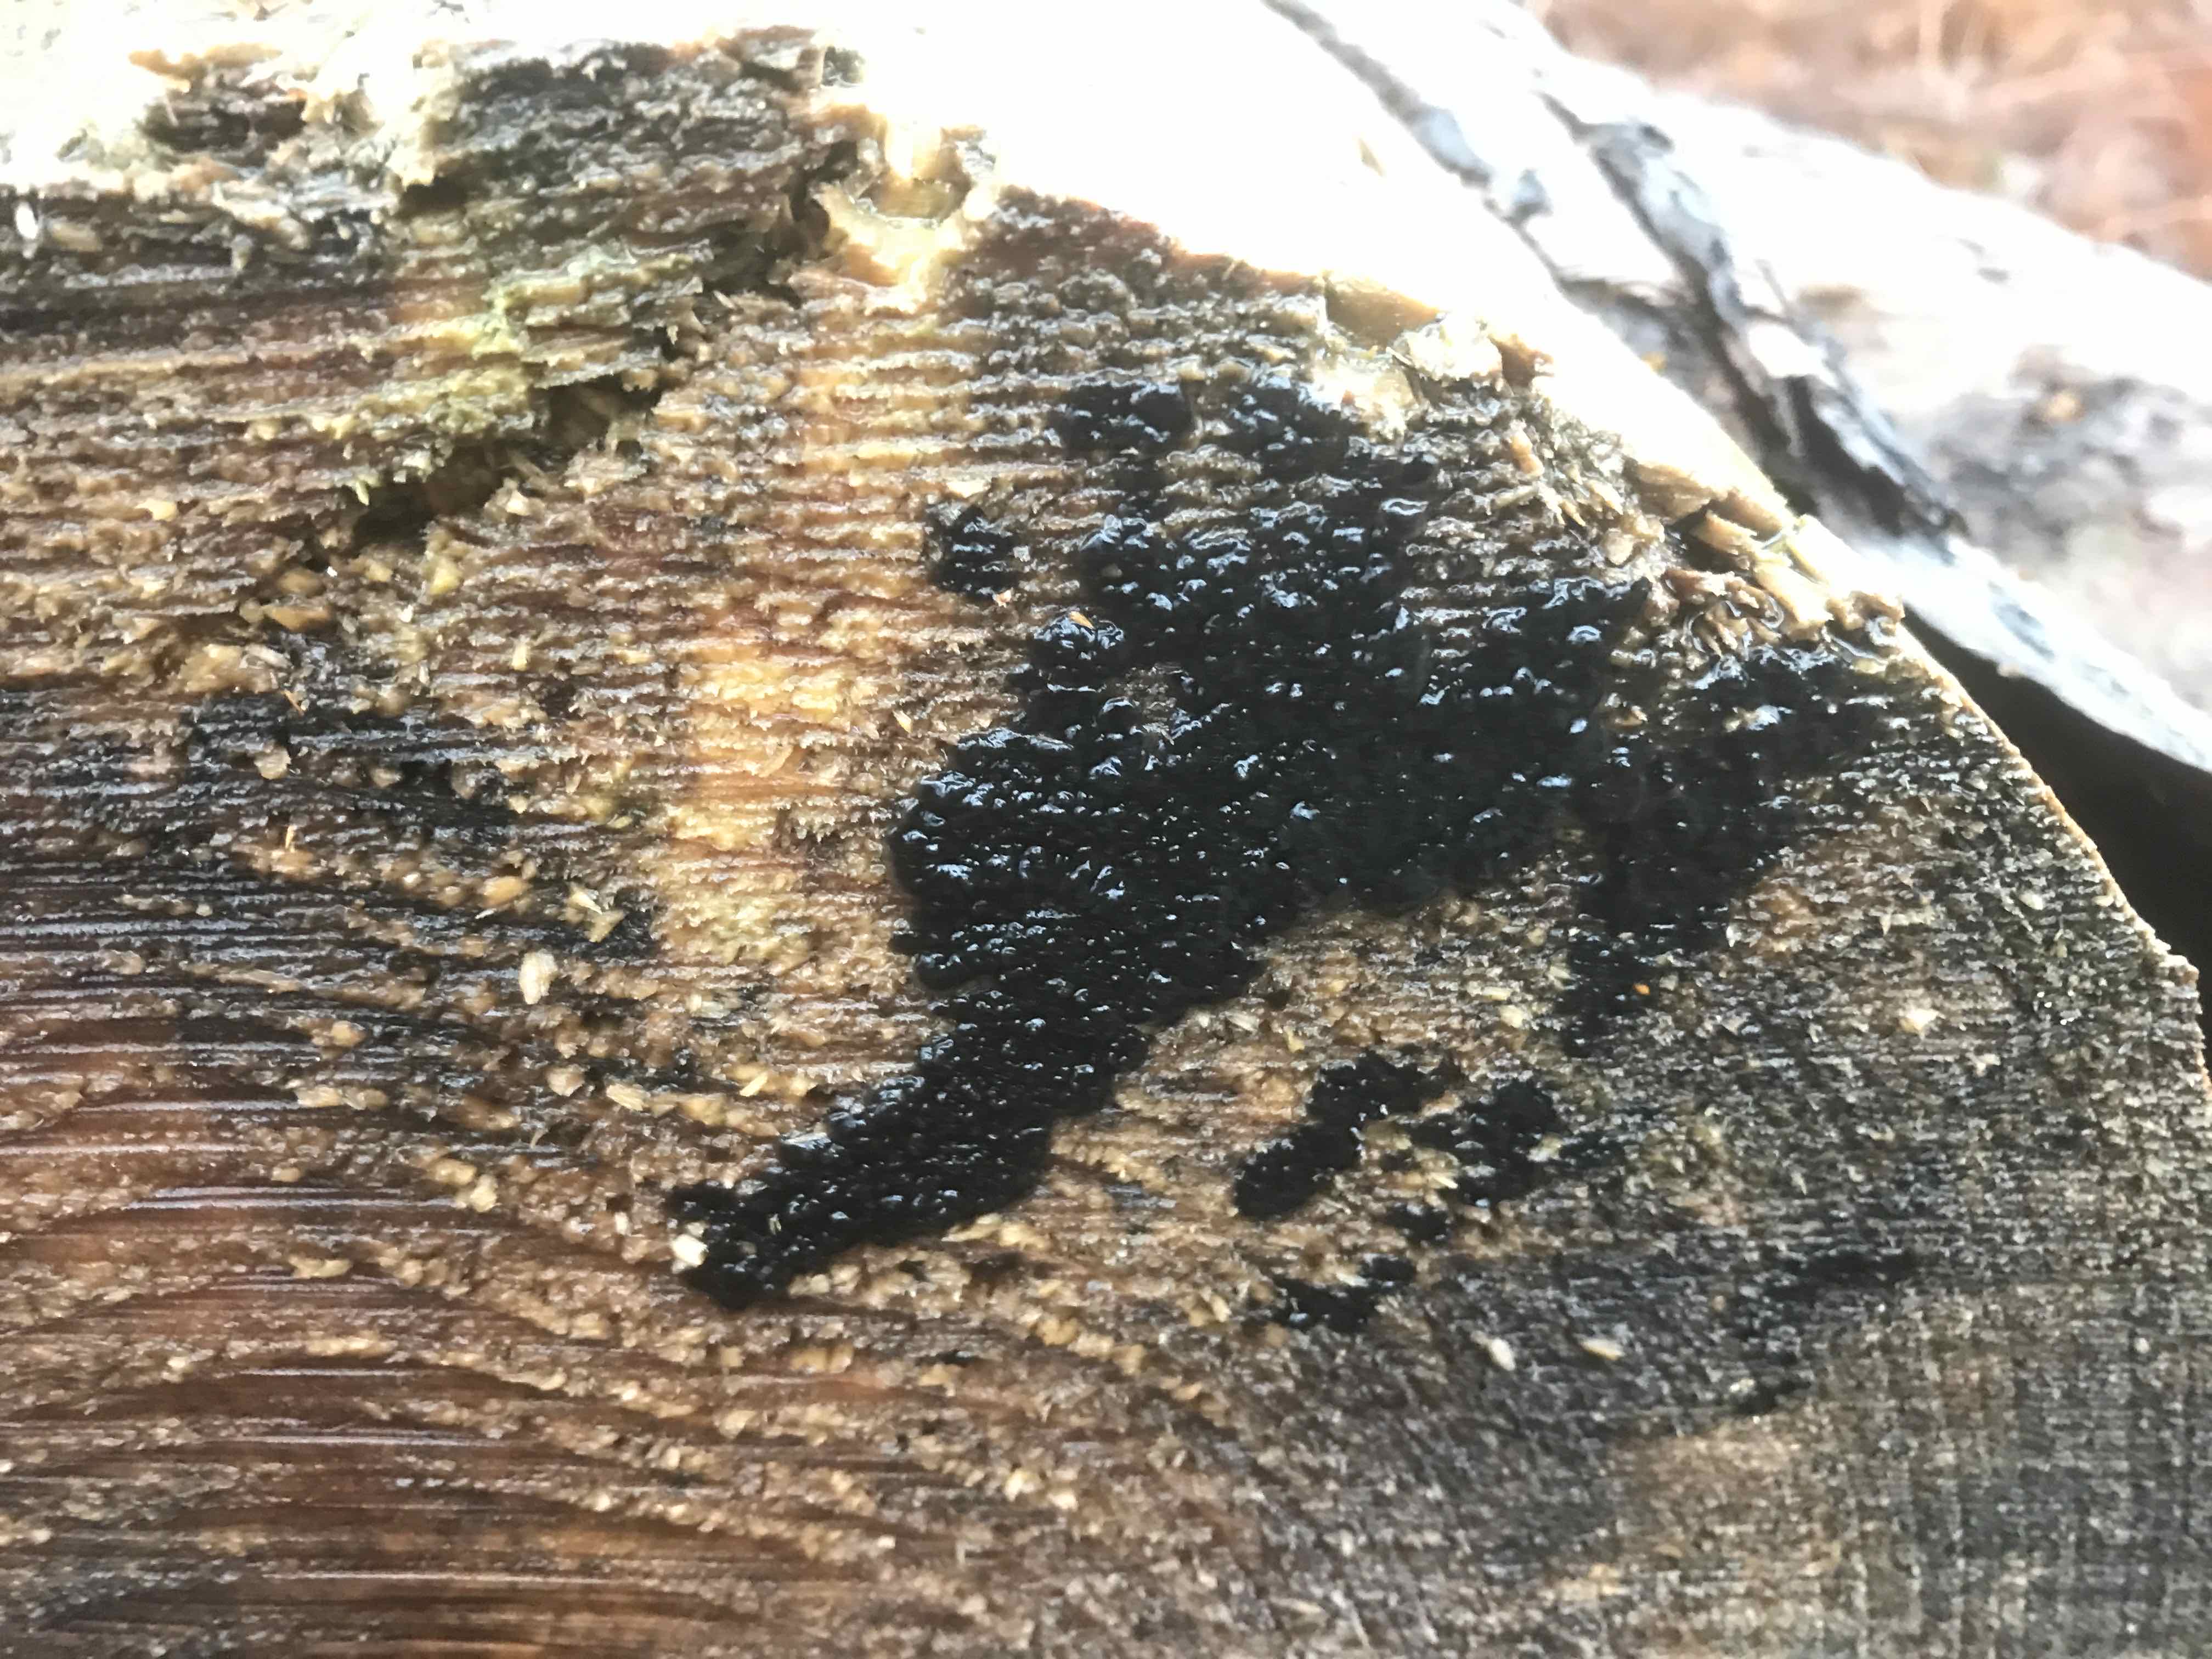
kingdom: Fungi
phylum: Basidiomycota
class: Agaricomycetes
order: Auriculariales
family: Auriculariaceae
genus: Exidia
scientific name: Exidia pithya
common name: gran-bævretop
